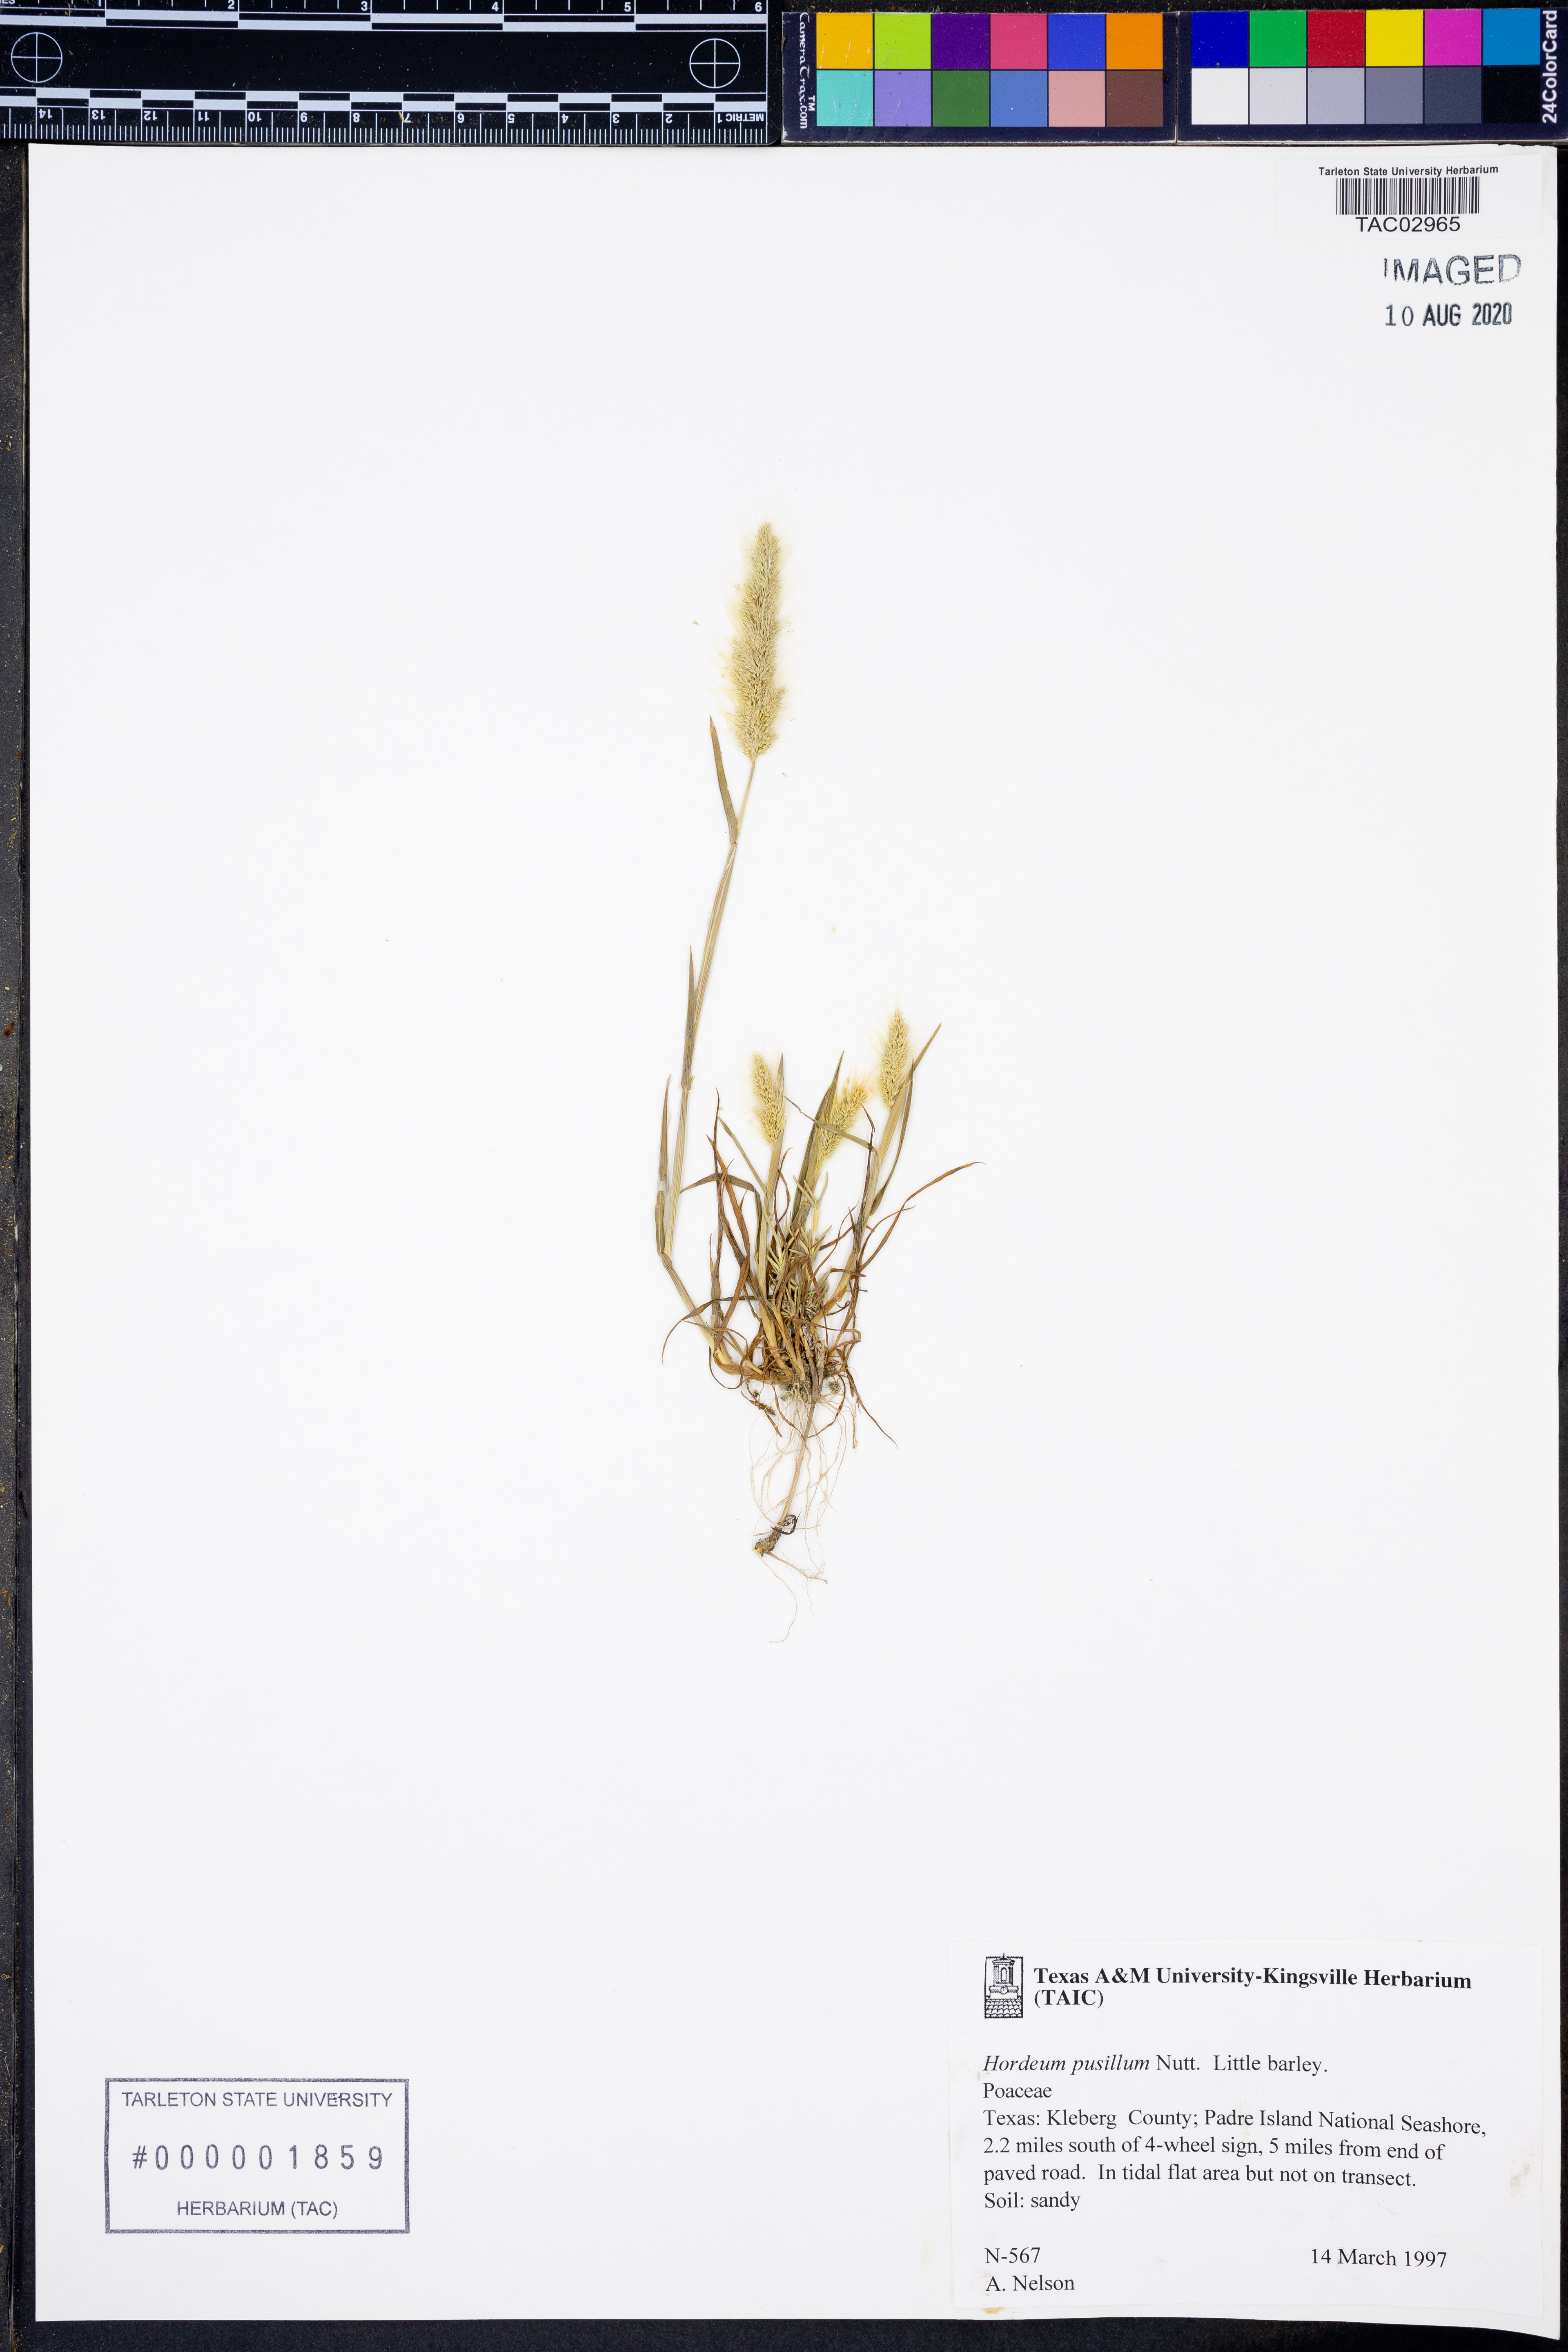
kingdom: Plantae
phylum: Tracheophyta
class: Liliopsida
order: Poales
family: Poaceae
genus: Hordeum
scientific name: Hordeum pusillum
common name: Little barley
